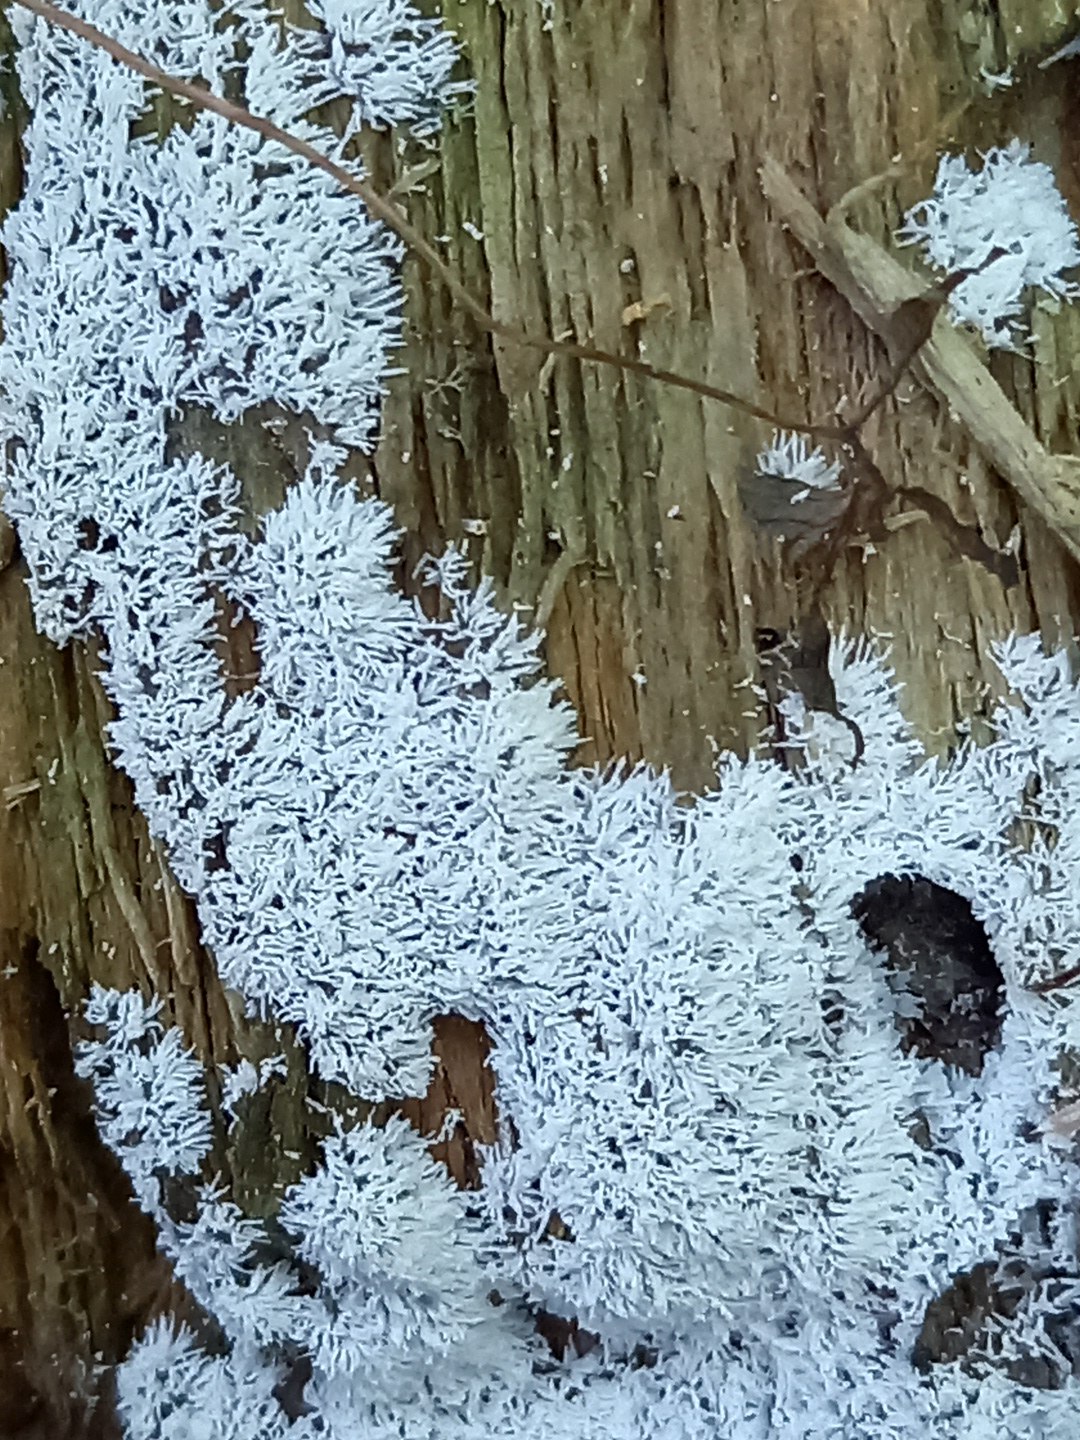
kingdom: Protozoa
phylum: Mycetozoa
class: Protosteliomycetes
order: Ceratiomyxales
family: Ceratiomyxaceae
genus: Ceratiomyxa
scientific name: Ceratiomyxa fruticulosa
